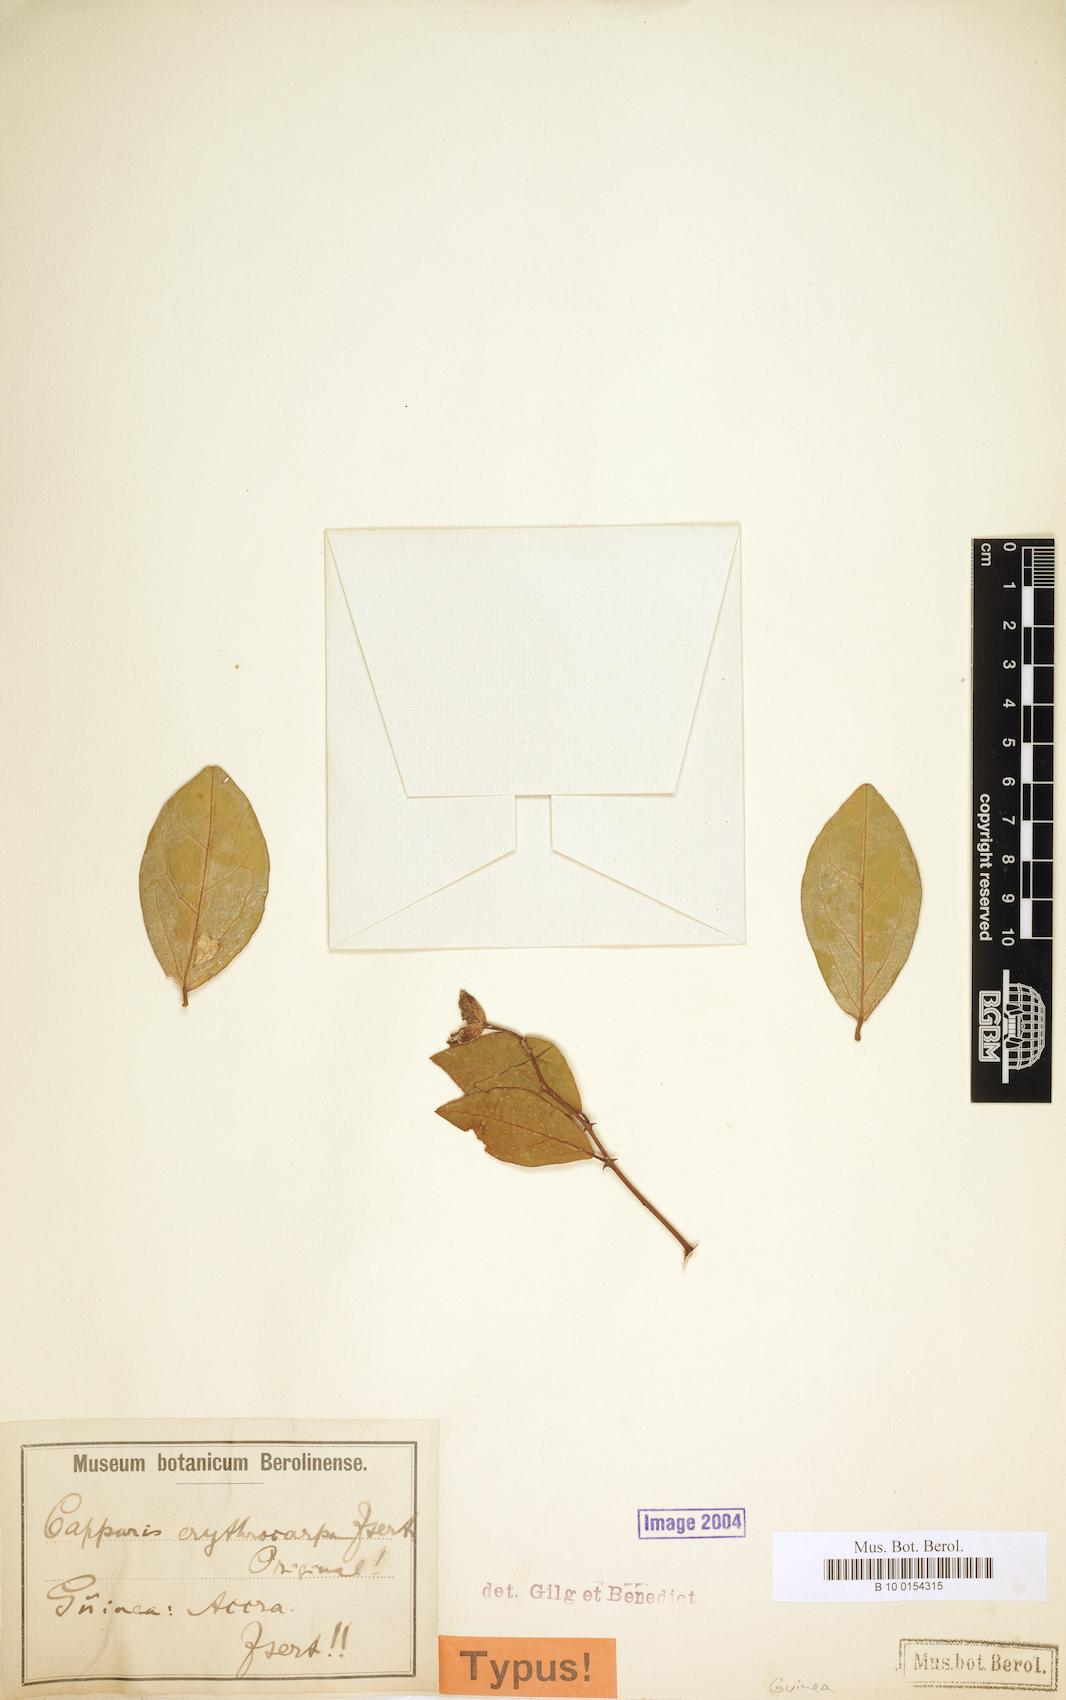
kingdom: Plantae
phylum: Tracheophyta
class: Magnoliopsida
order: Brassicales
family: Capparaceae
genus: Capparis
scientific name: Capparis erythrocarpos
